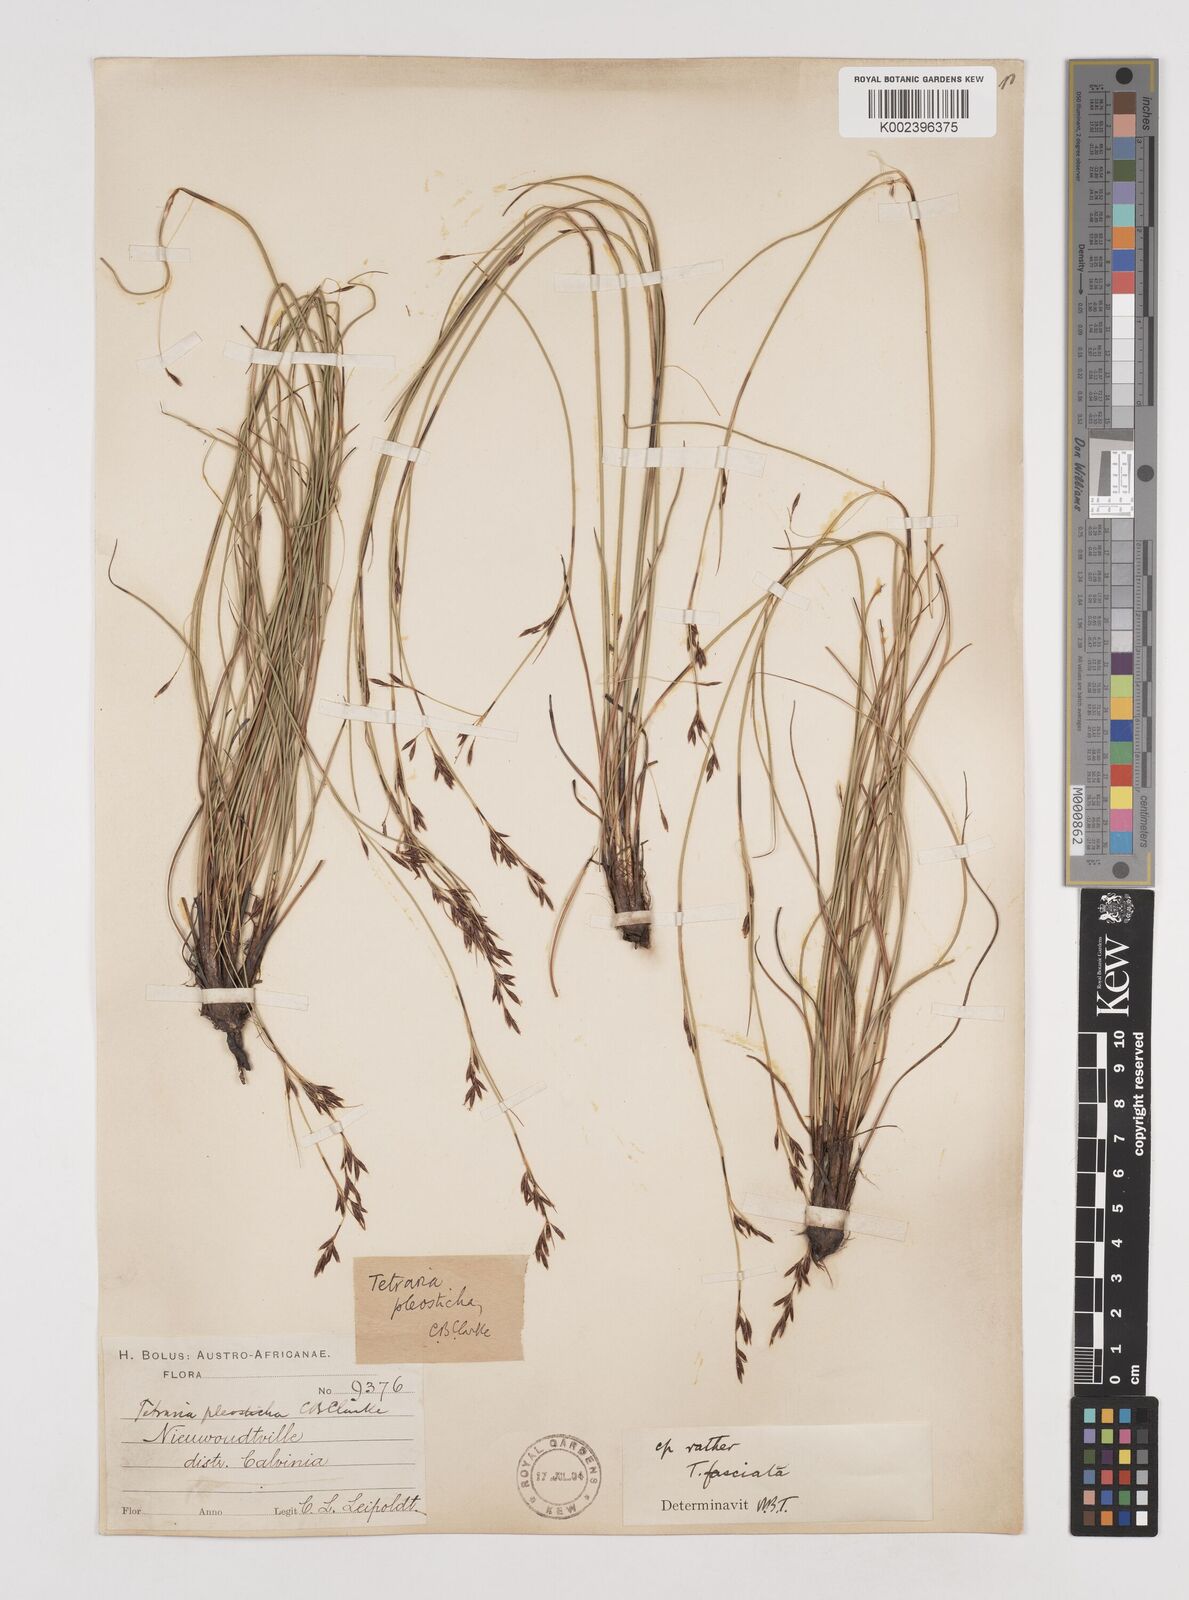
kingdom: Plantae
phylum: Tracheophyta
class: Liliopsida
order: Poales
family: Cyperaceae
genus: Tetraria
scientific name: Tetraria
